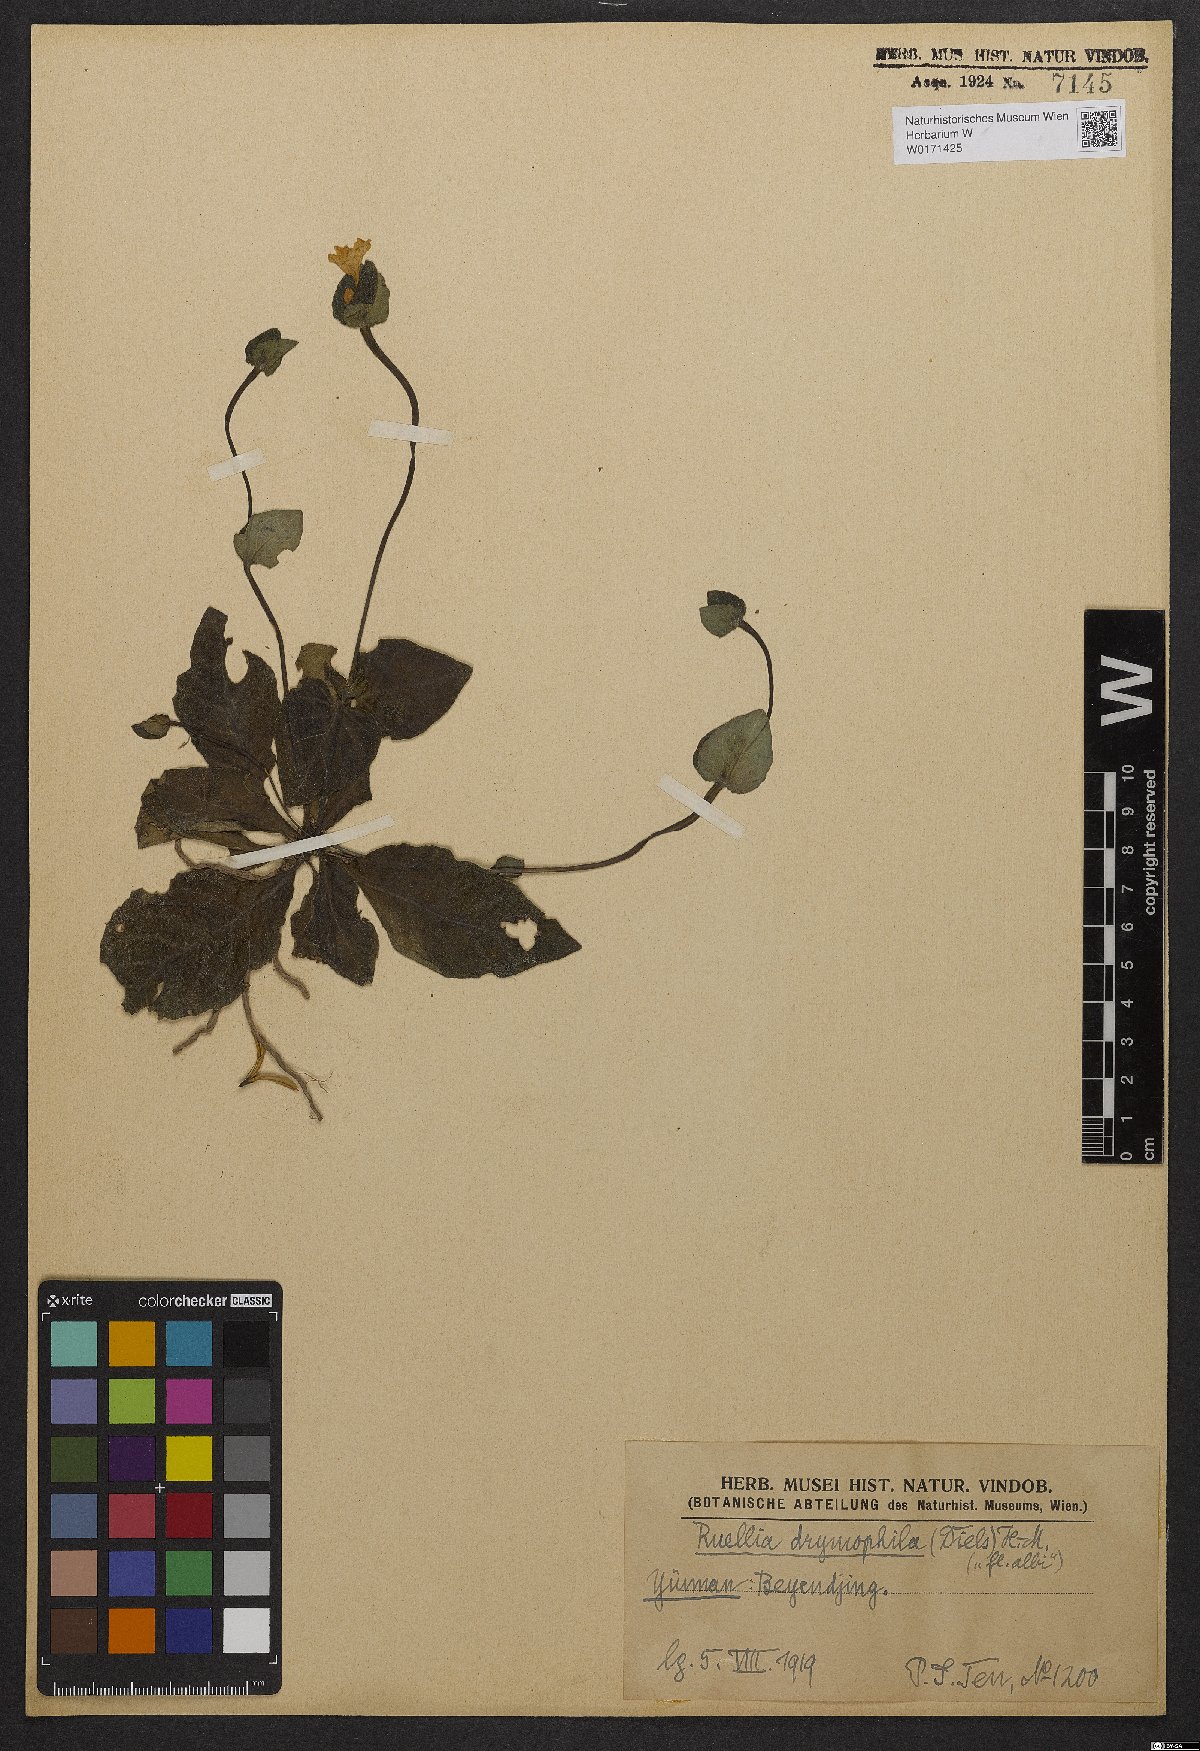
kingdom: Plantae
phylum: Tracheophyta
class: Magnoliopsida
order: Lamiales
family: Acanthaceae
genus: Pararuellia
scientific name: Pararuellia delavayana
